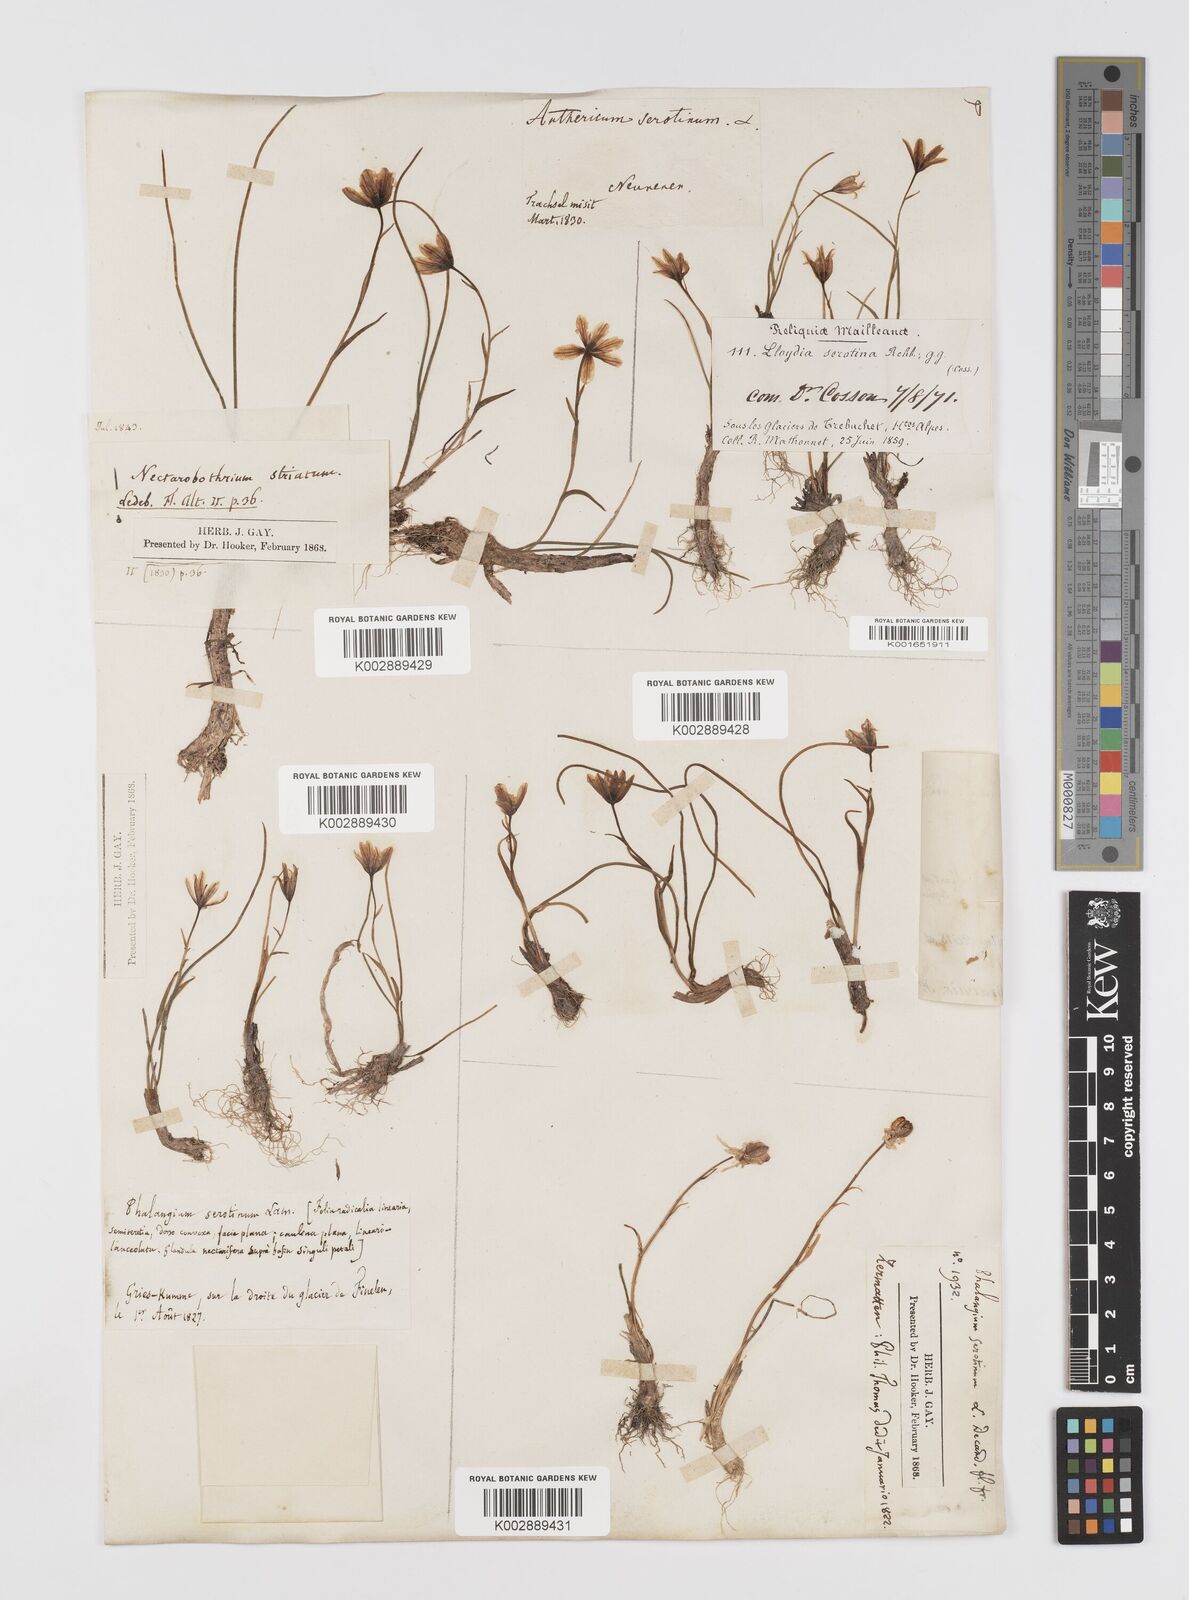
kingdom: Plantae
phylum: Tracheophyta
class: Liliopsida
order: Liliales
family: Liliaceae
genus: Gagea
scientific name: Gagea
